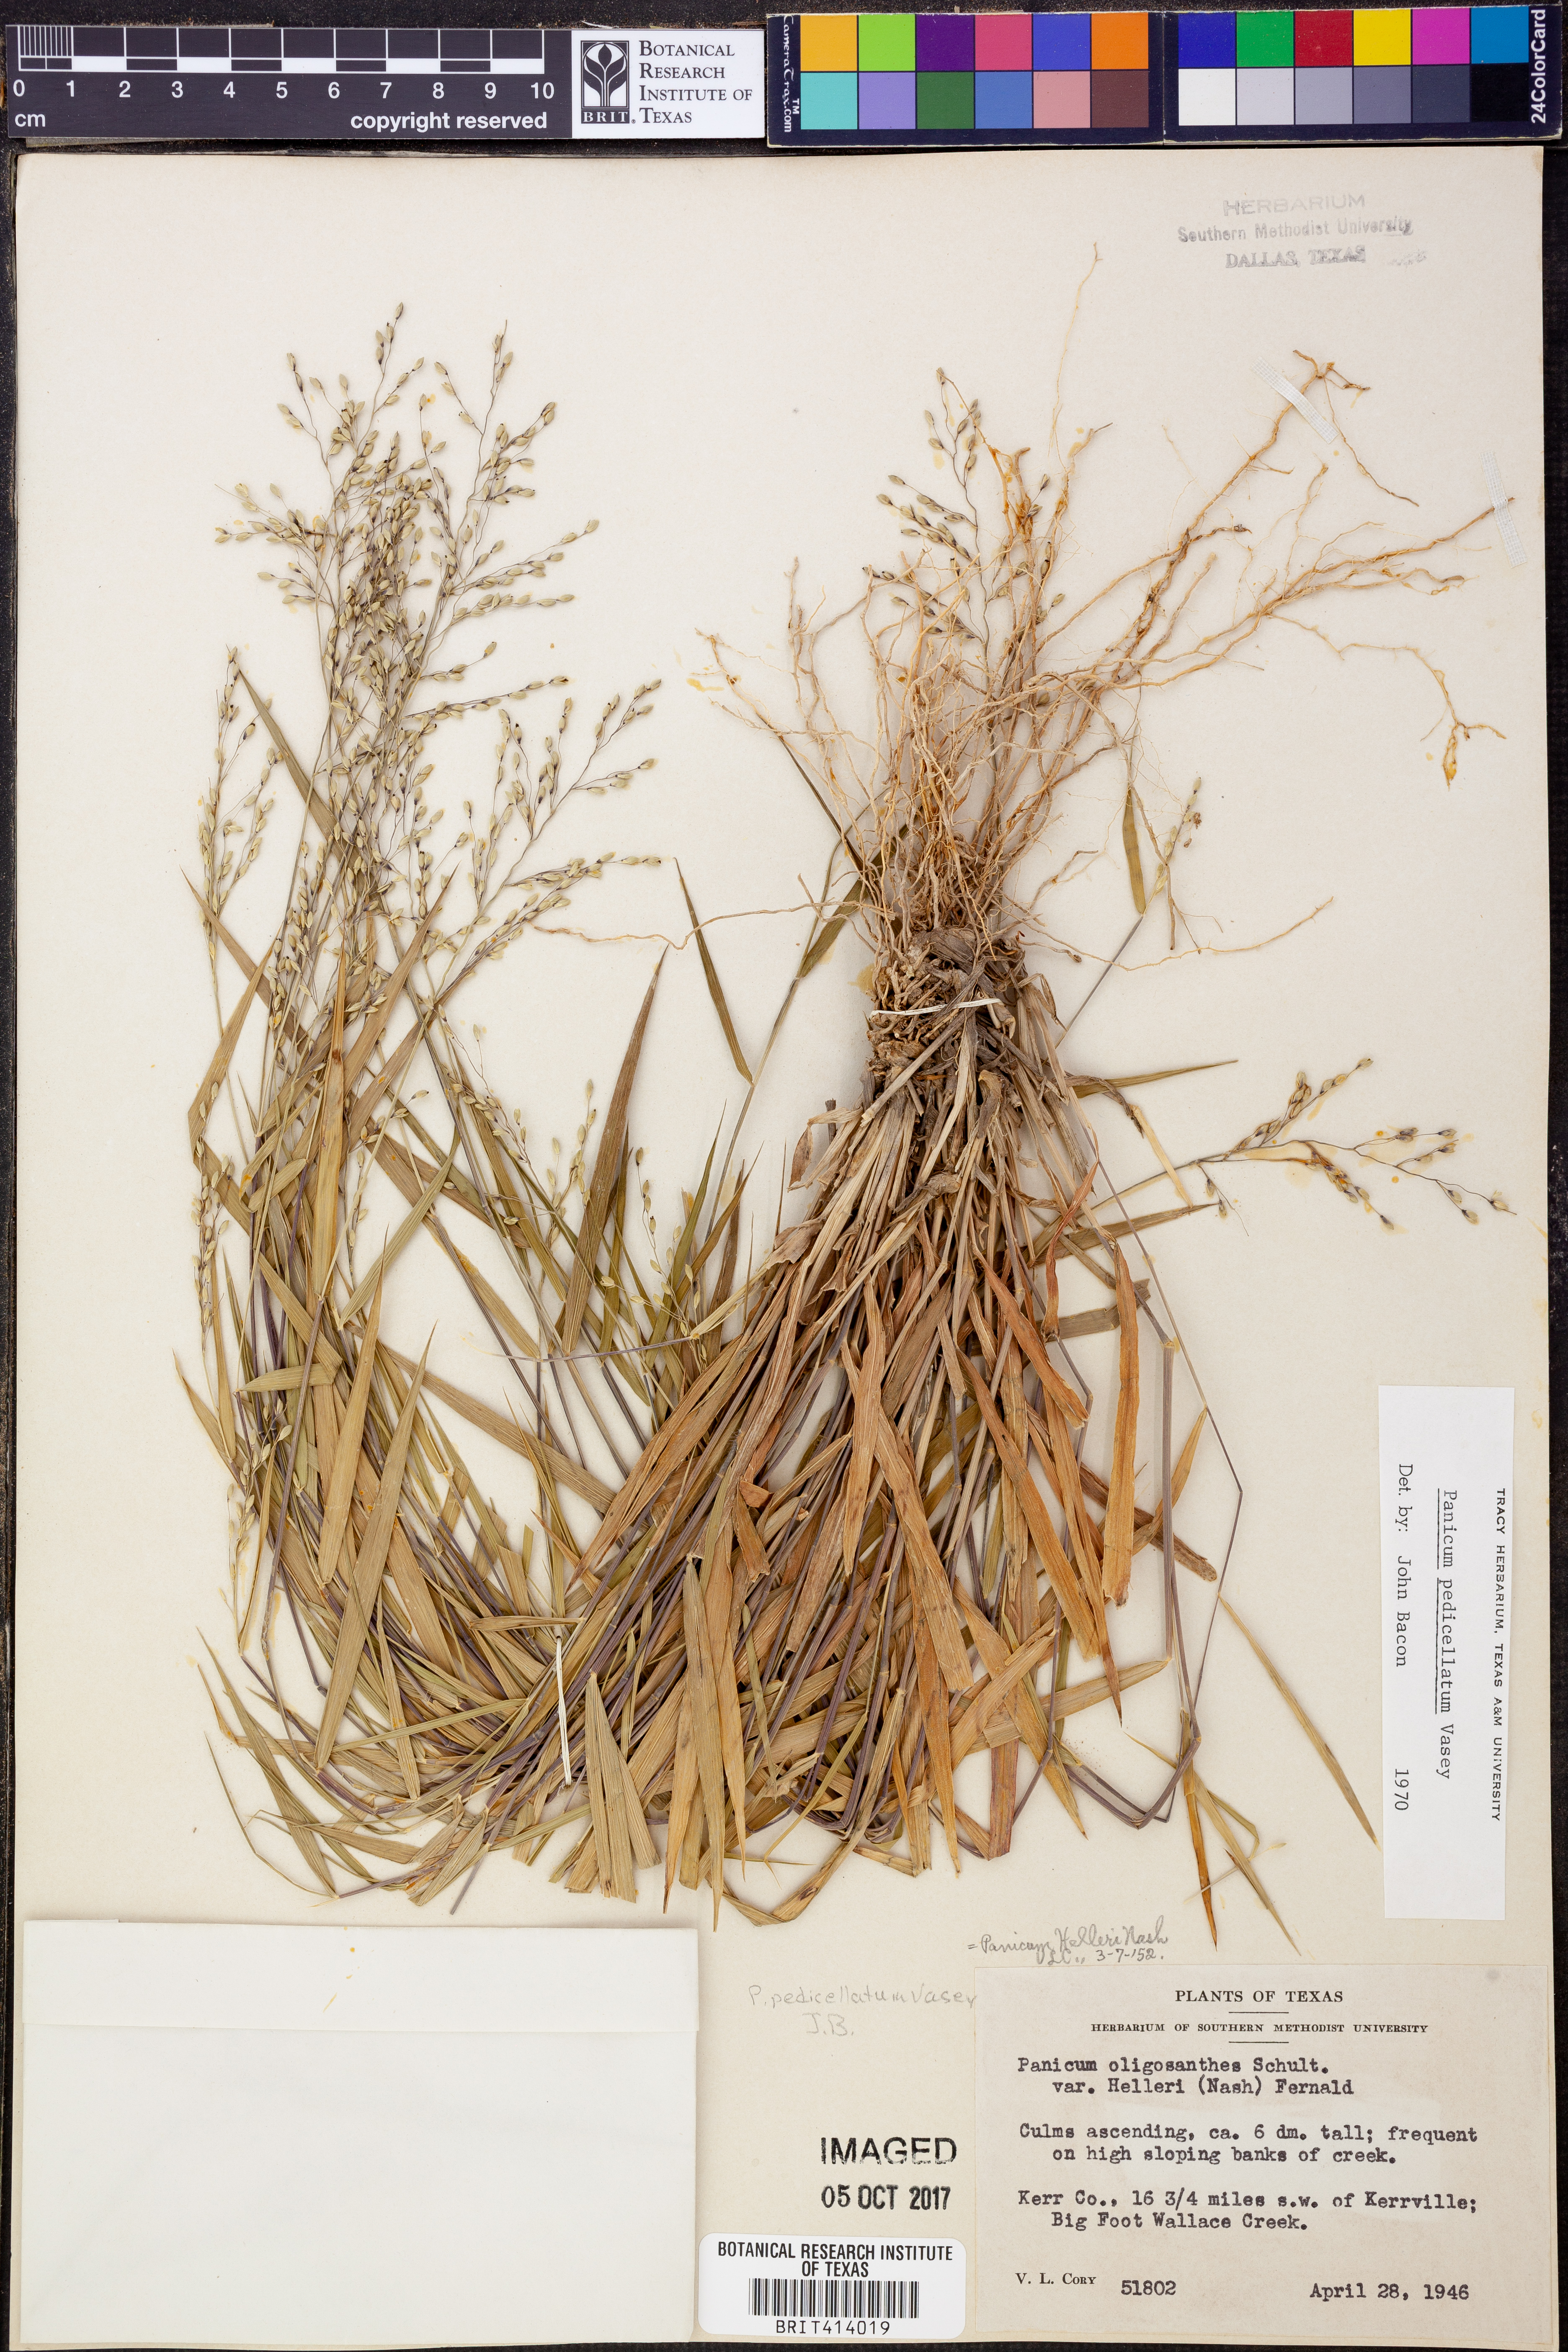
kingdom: Plantae
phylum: Tracheophyta
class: Liliopsida
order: Poales
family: Poaceae
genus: Dichanthelium
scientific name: Dichanthelium transiens
